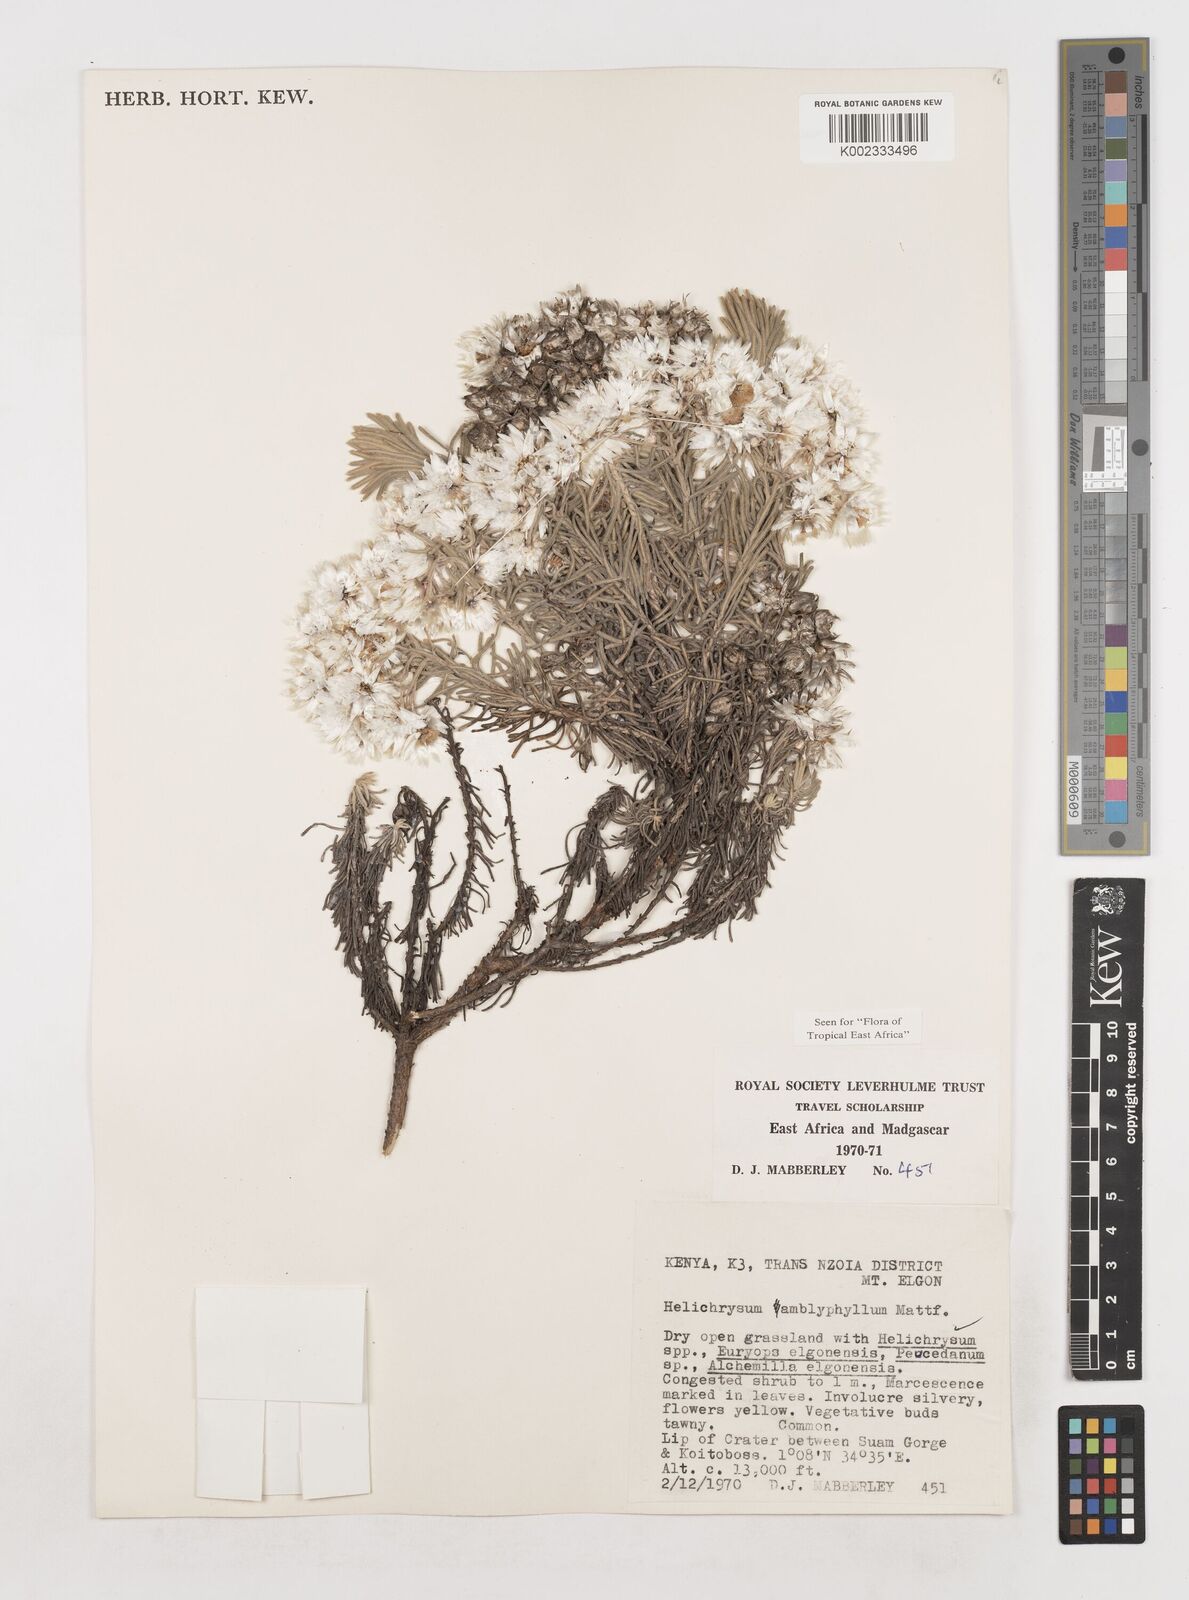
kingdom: Plantae
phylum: Tracheophyta
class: Magnoliopsida
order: Asterales
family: Asteraceae
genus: Helichrysum
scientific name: Helichrysum amblyphyllum
